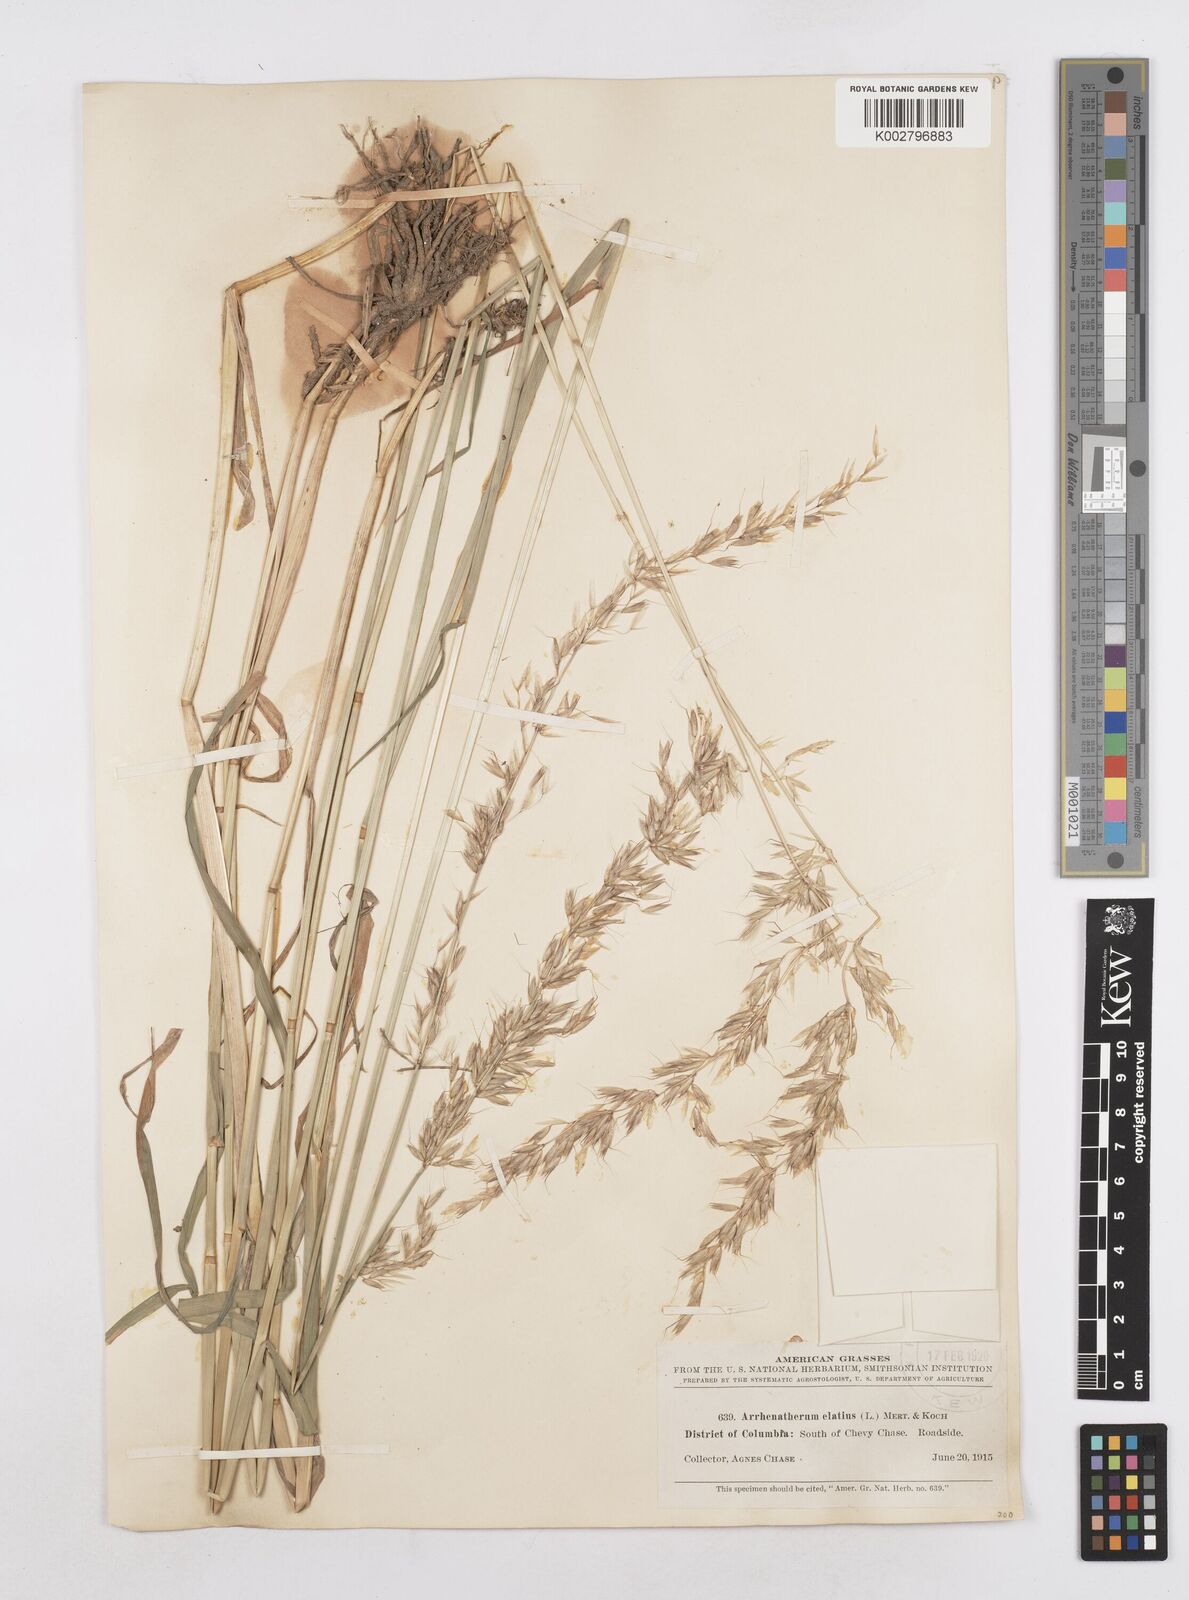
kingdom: Plantae
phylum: Tracheophyta
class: Liliopsida
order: Poales
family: Poaceae
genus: Arrhenatherum
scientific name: Arrhenatherum elatius
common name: Tall oatgrass
